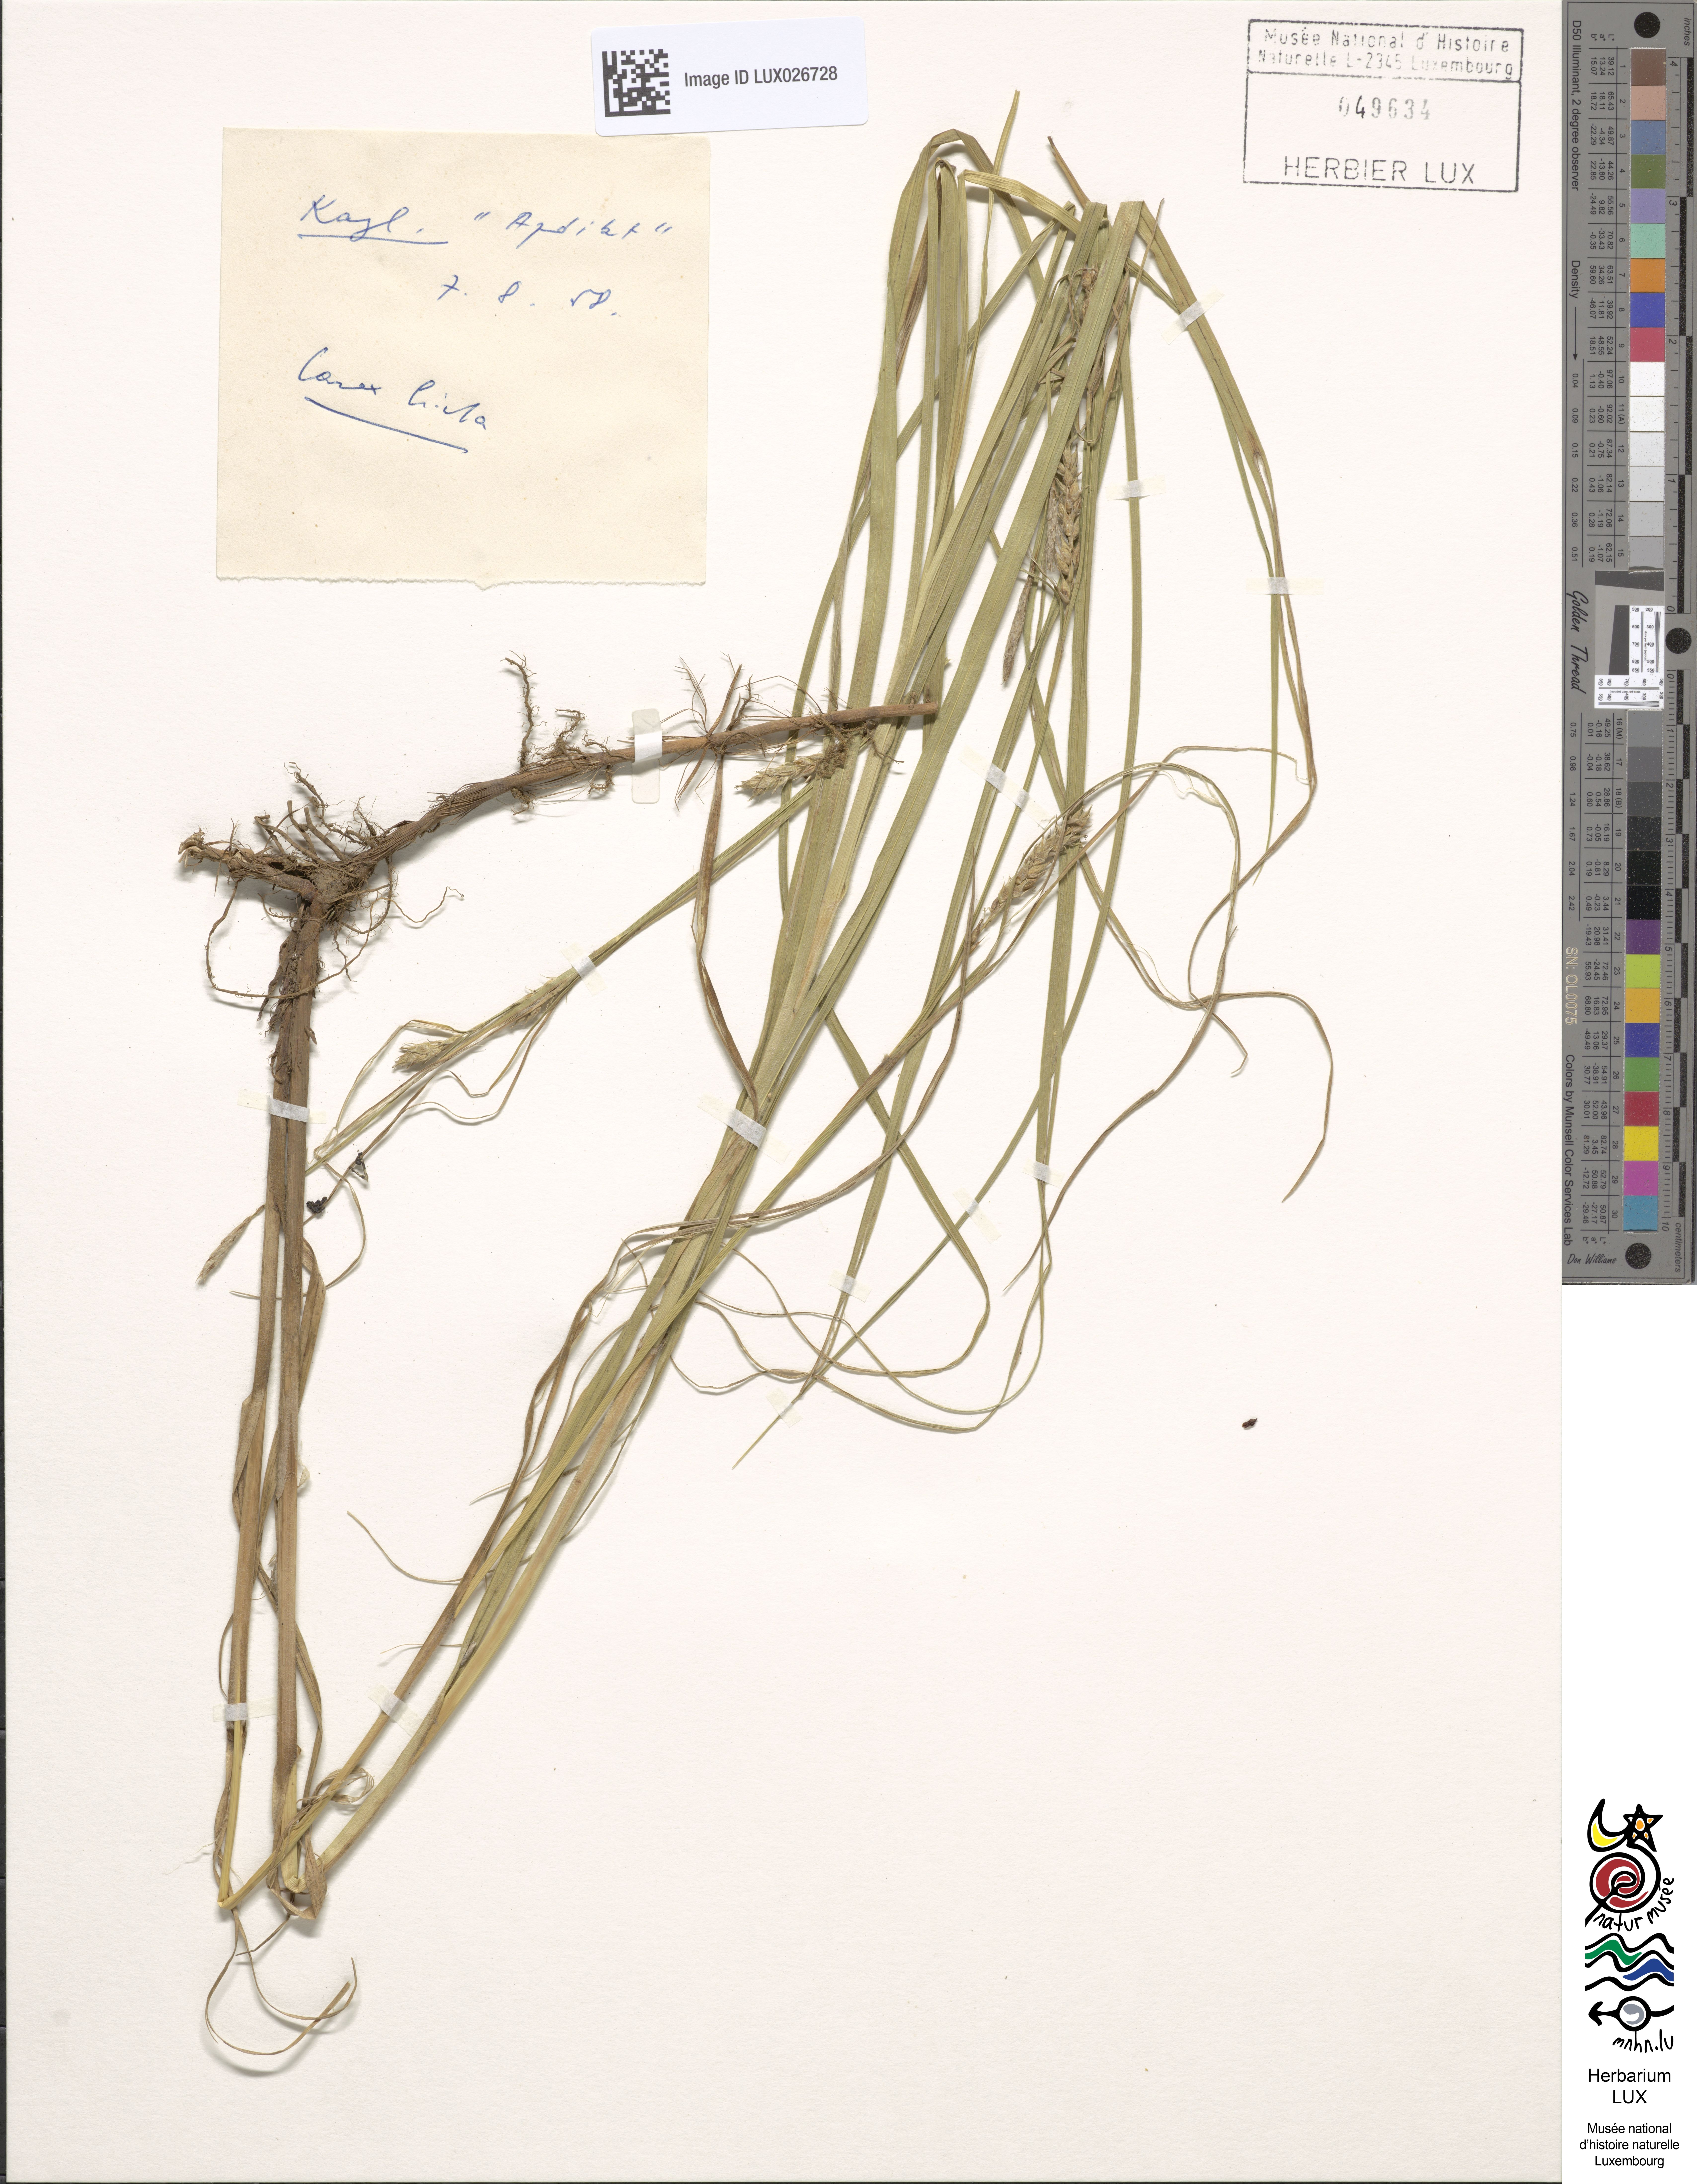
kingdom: Plantae
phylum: Tracheophyta
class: Liliopsida
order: Poales
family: Cyperaceae
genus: Carex
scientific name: Carex hirta
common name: Hairy sedge
